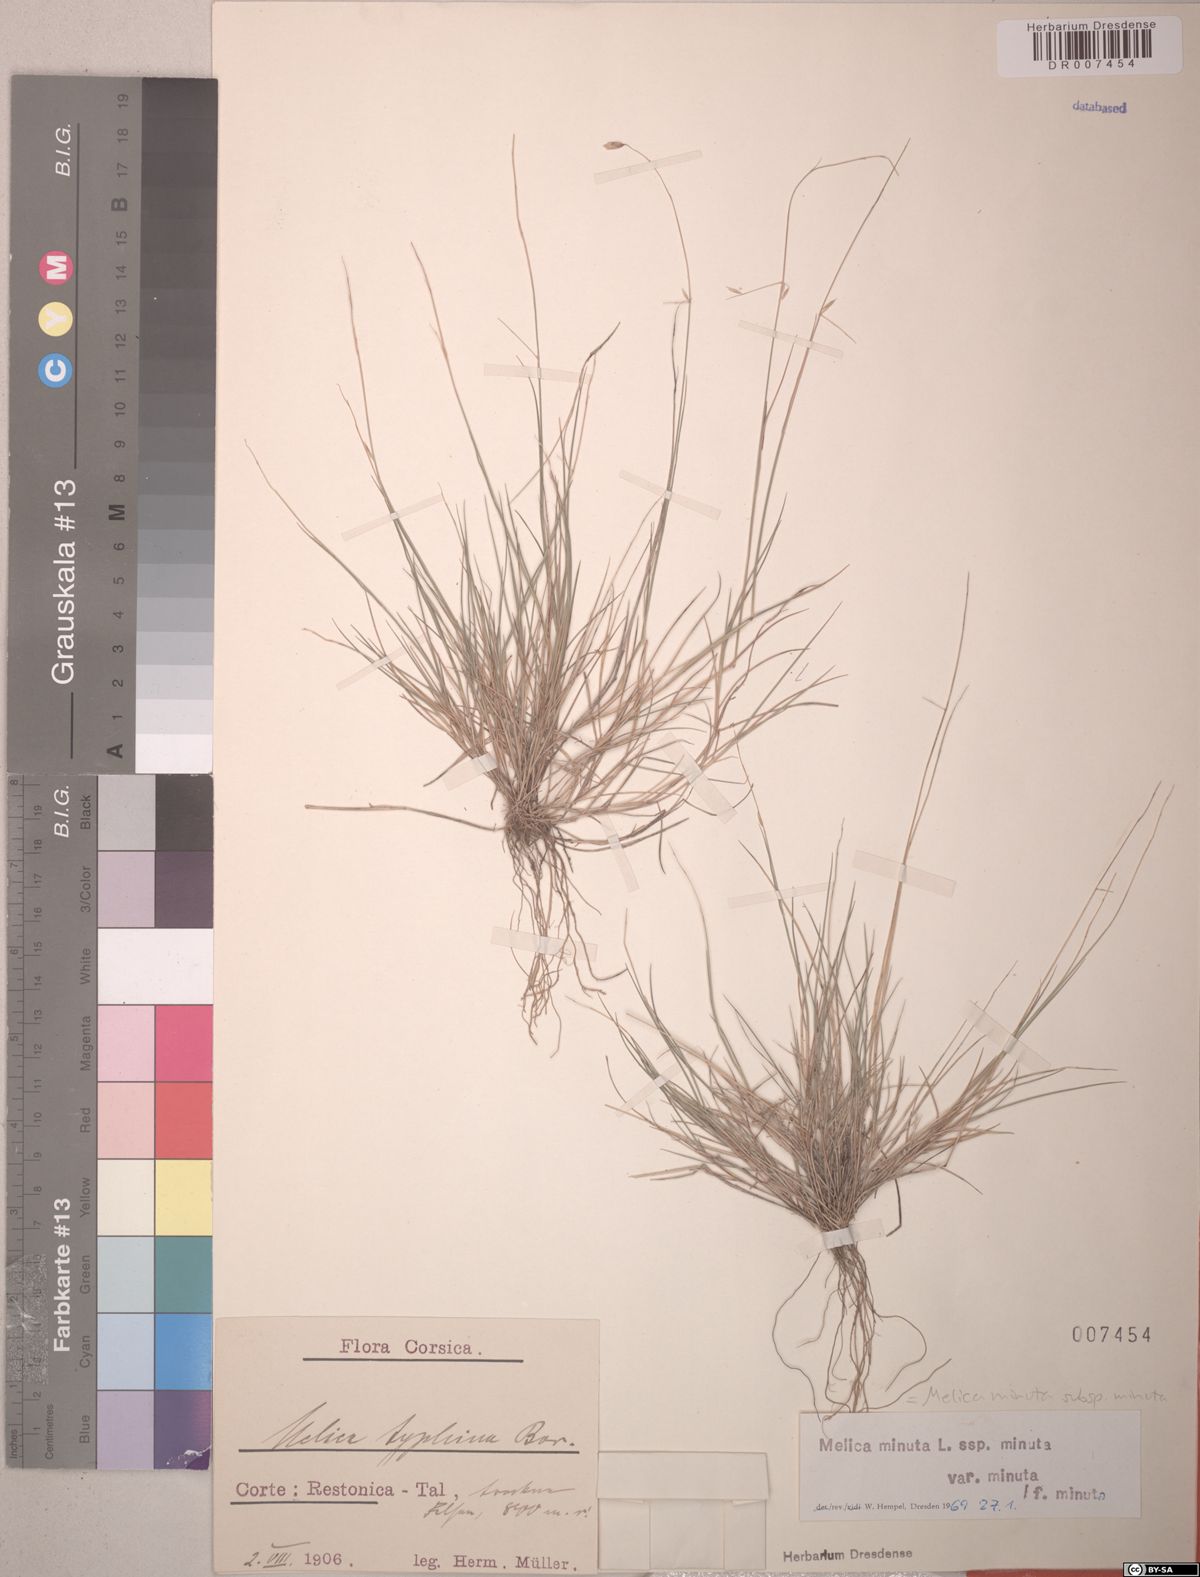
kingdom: Plantae
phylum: Tracheophyta
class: Liliopsida
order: Poales
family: Poaceae
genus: Melica
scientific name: Melica minuta
